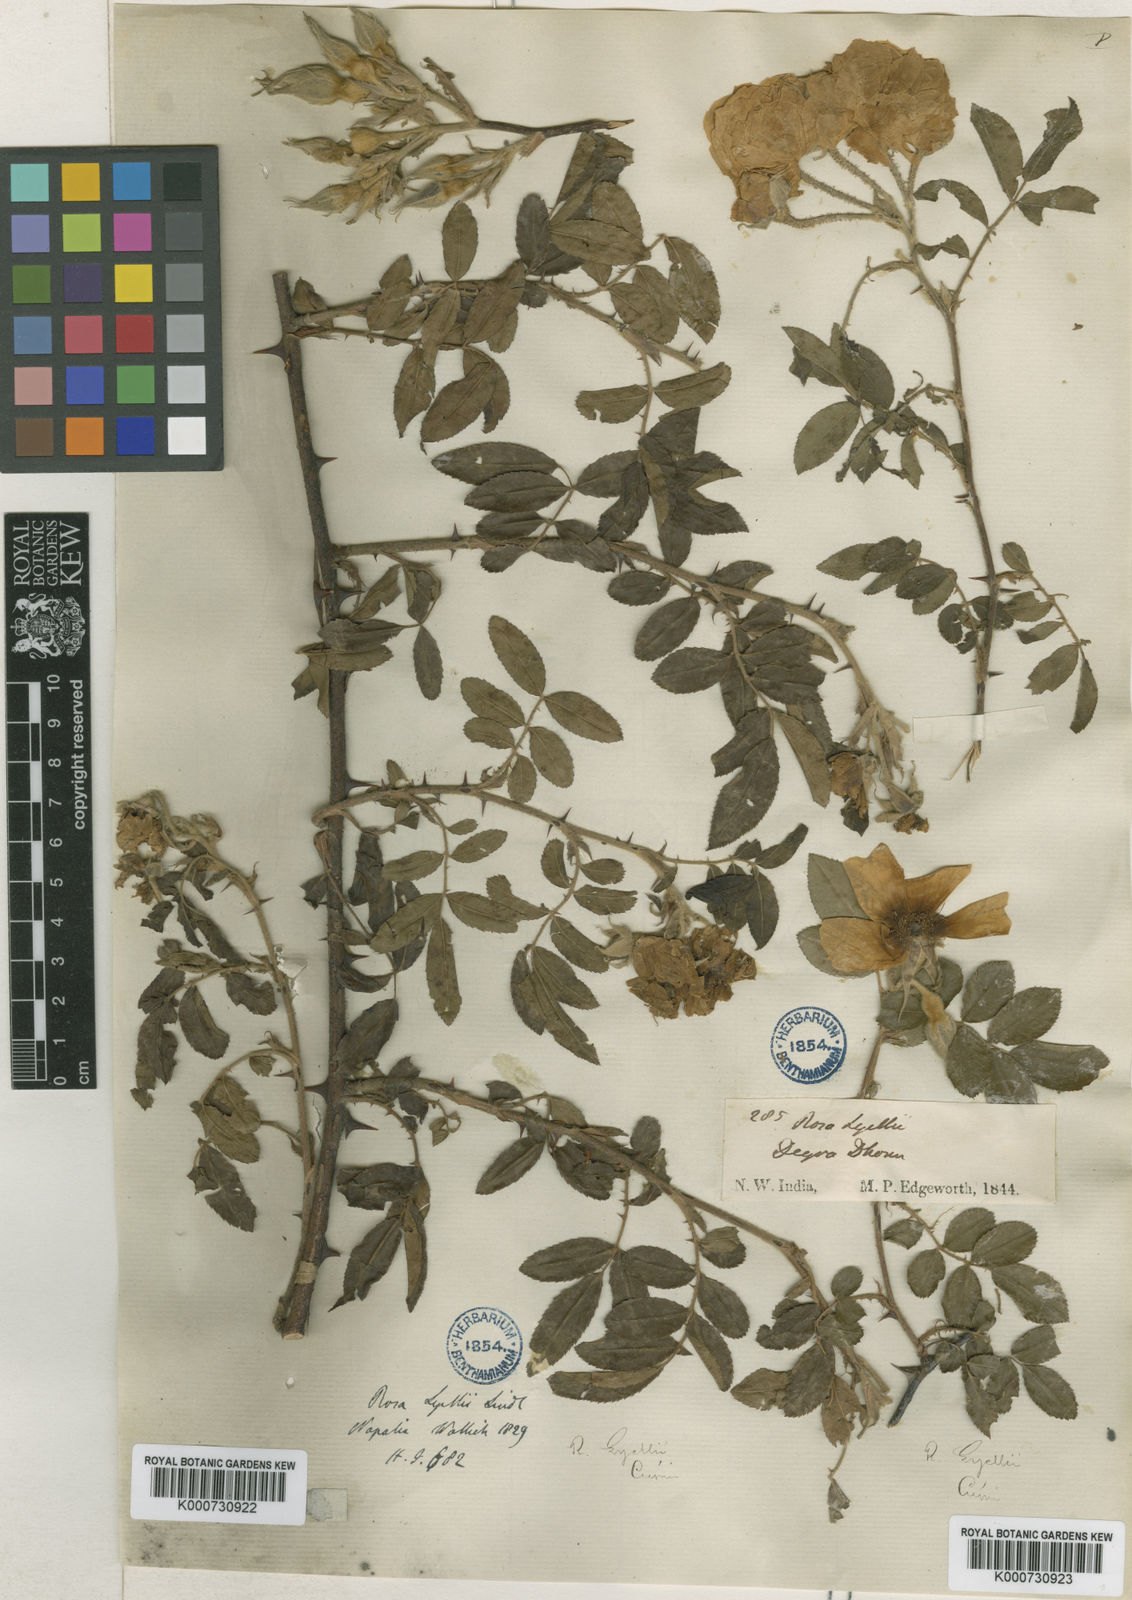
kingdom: Plantae
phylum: Tracheophyta
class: Magnoliopsida
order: Rosales
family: Rosaceae
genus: Rosa
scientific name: Rosa clinophylla
